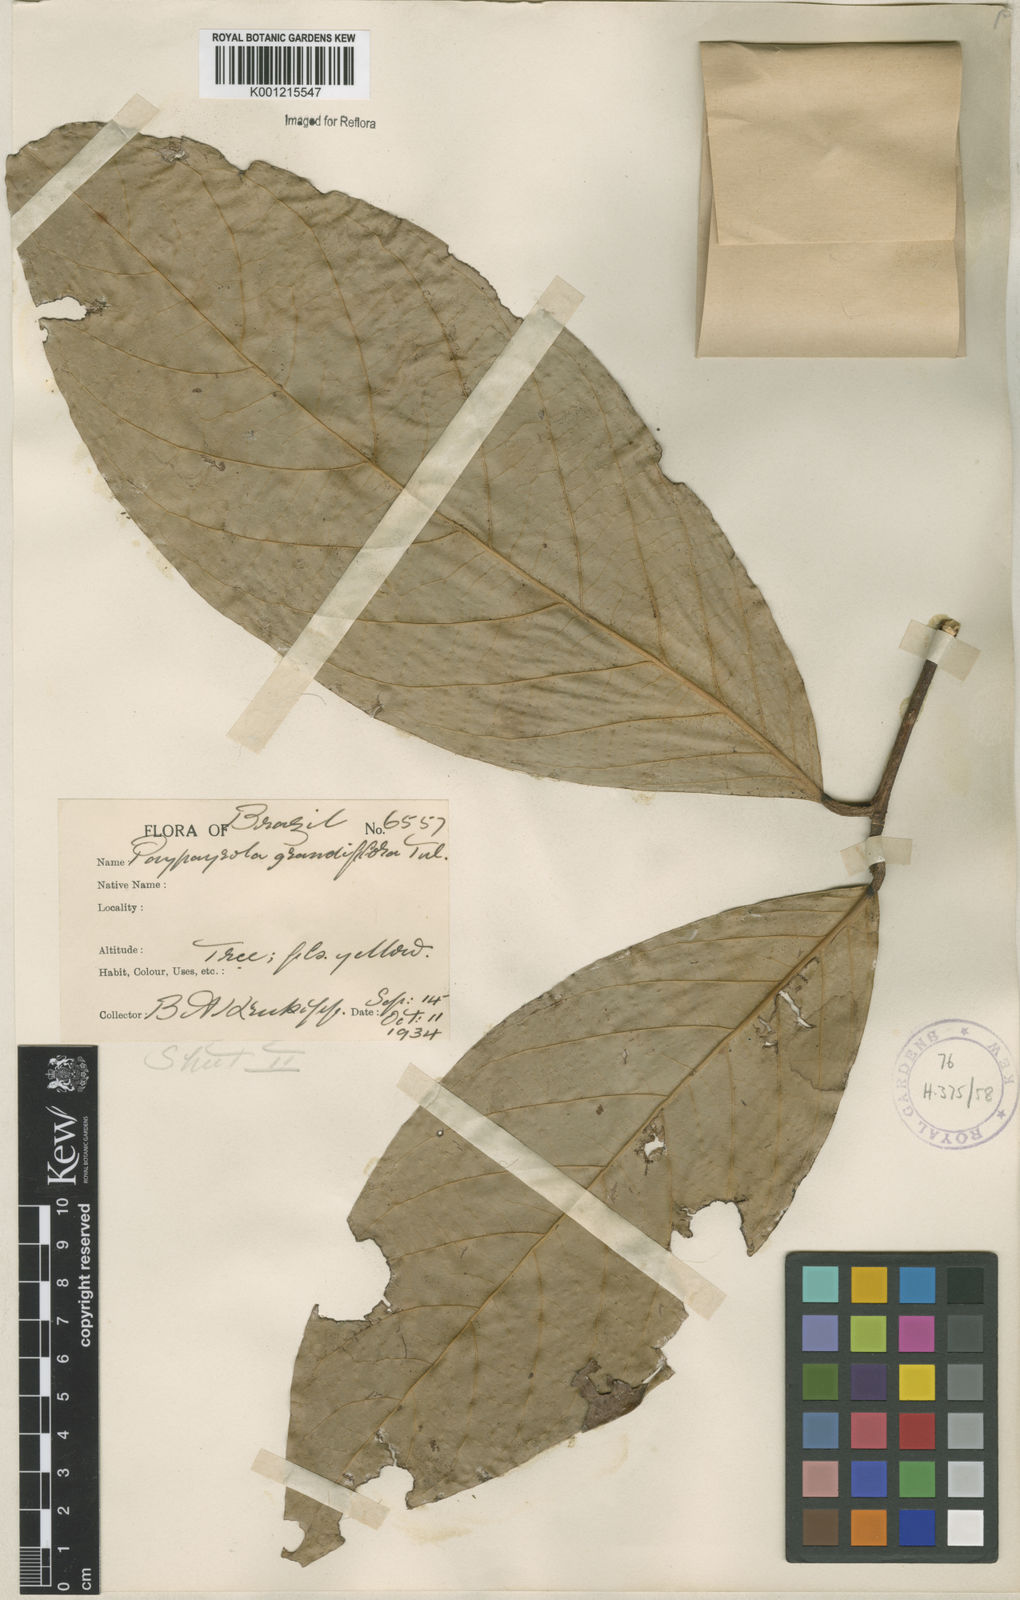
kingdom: Plantae
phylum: Tracheophyta
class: Magnoliopsida
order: Malpighiales
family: Violaceae
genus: Paypayrola
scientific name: Paypayrola grandiflora
